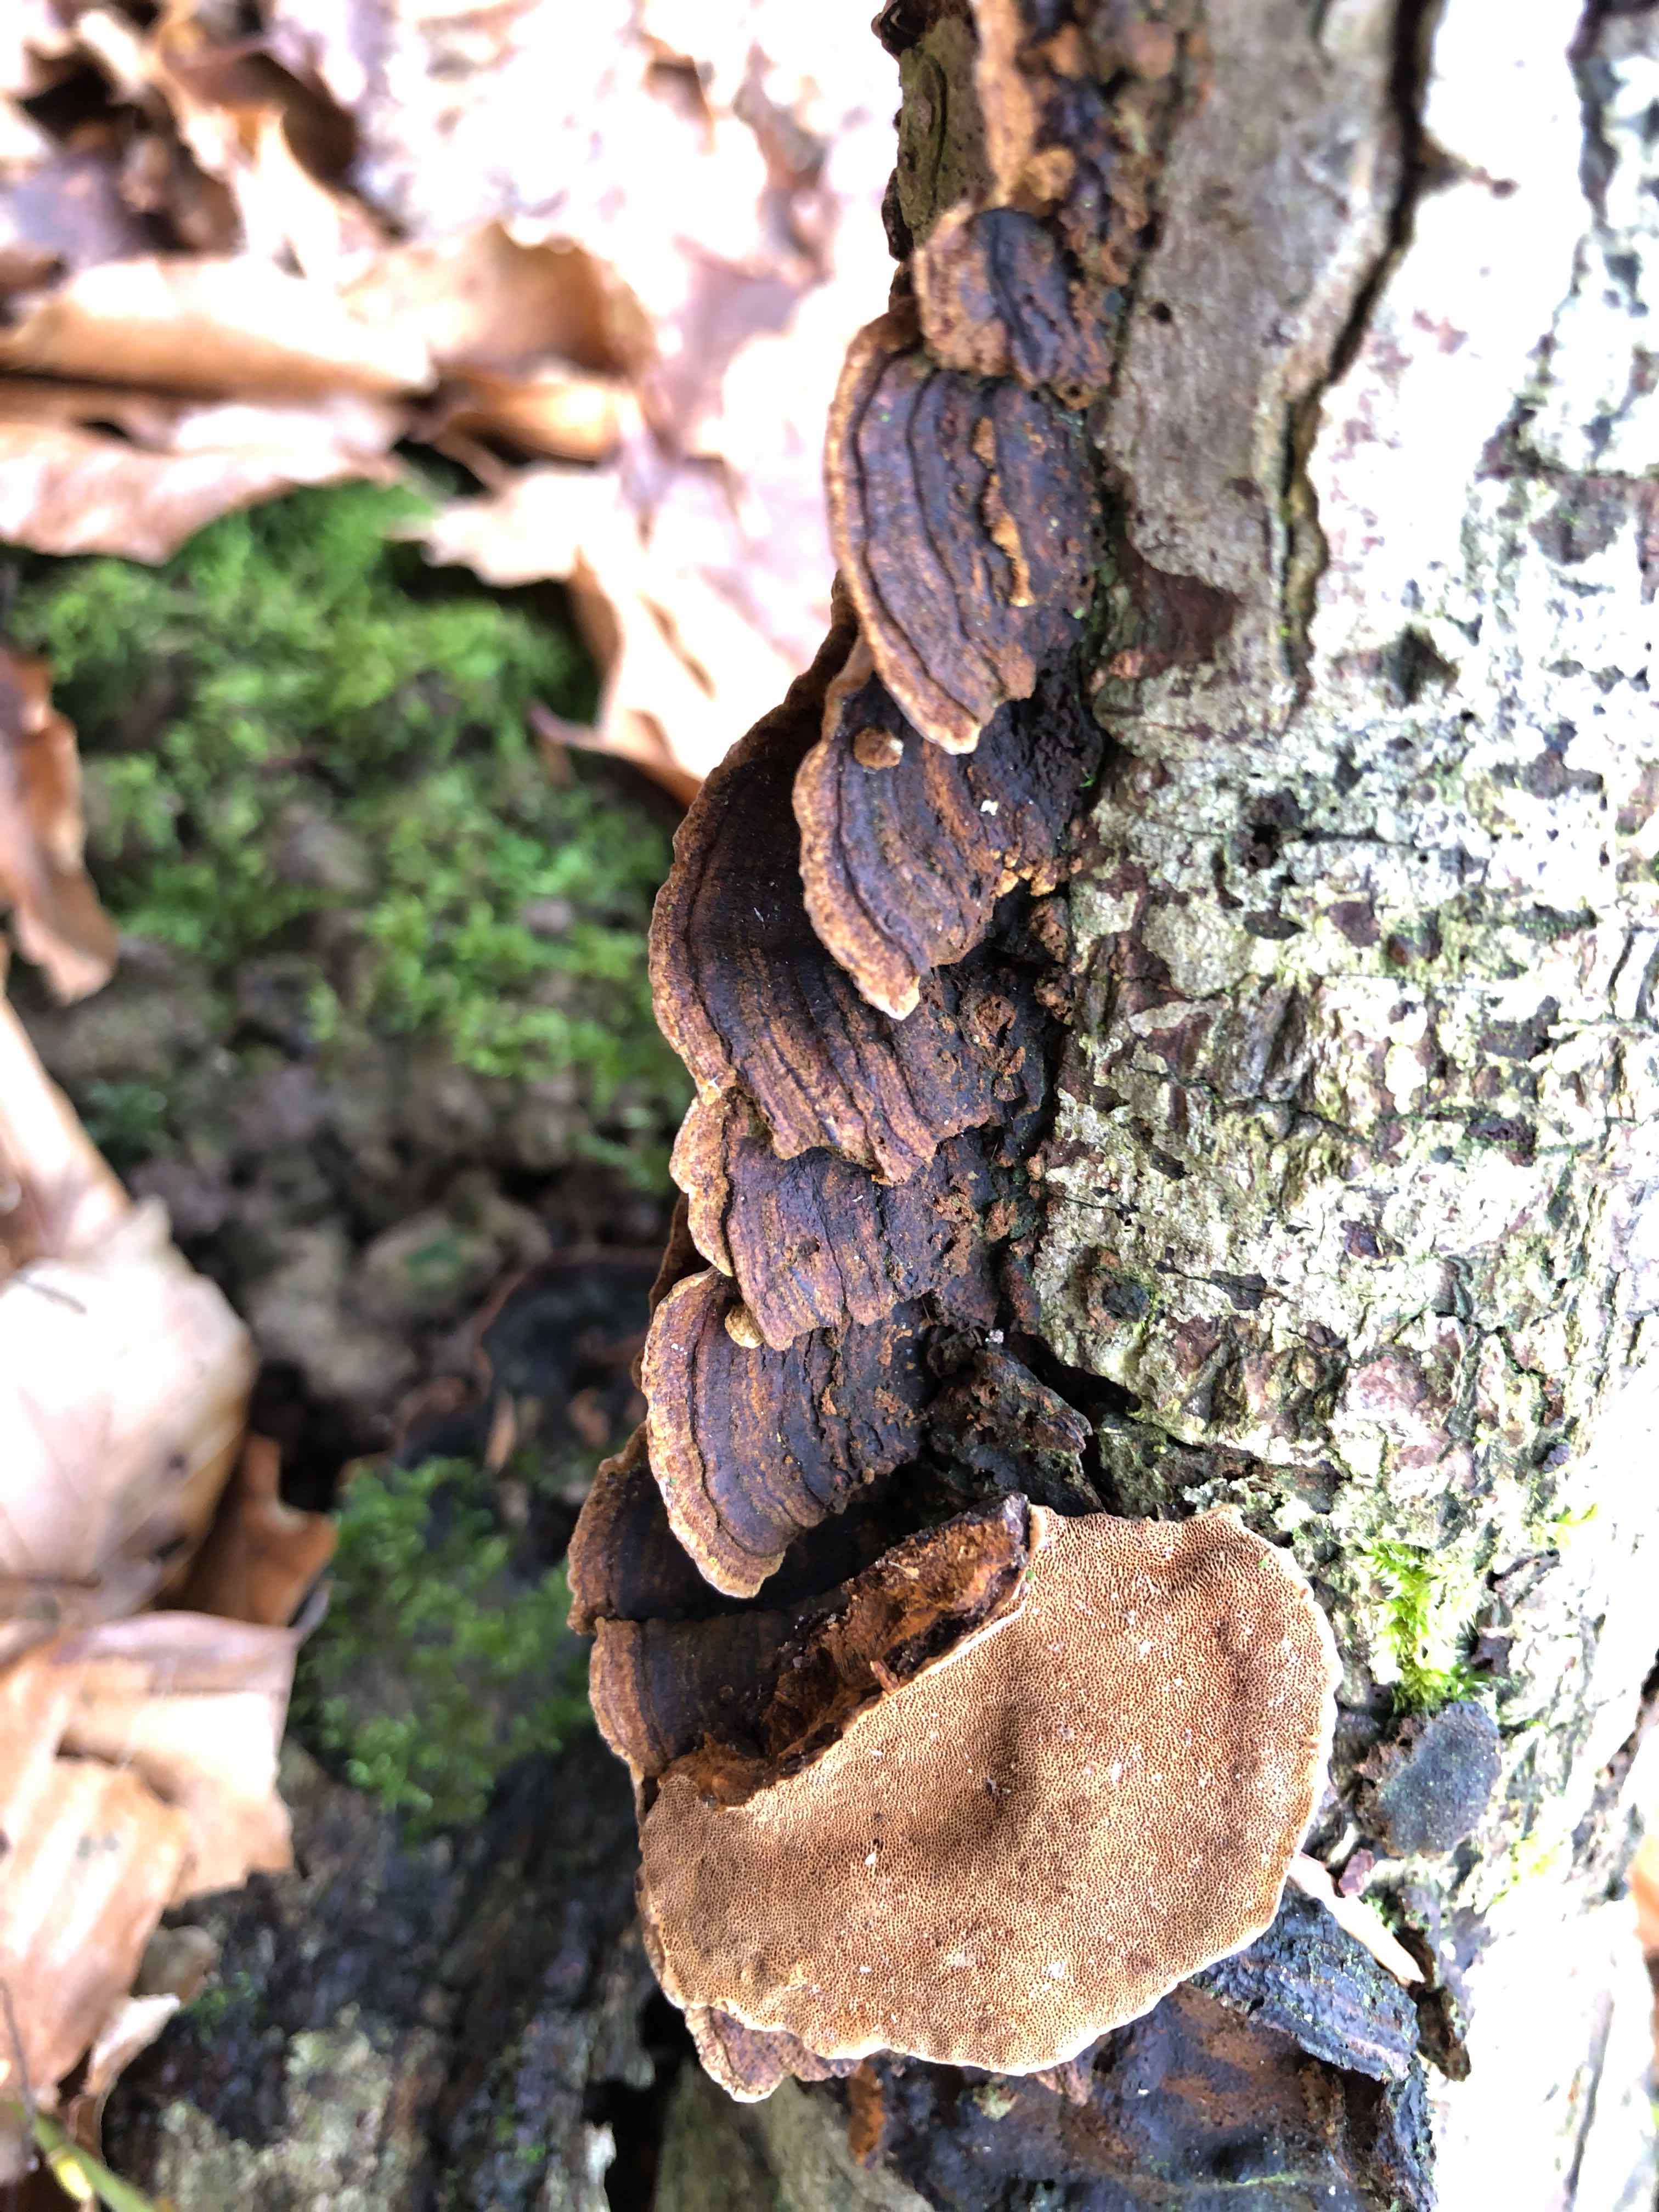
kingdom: Fungi
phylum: Basidiomycota
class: Agaricomycetes
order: Hymenochaetales
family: Hymenochaetaceae
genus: Phellinopsis
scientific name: Phellinopsis conchata
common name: pile-ildporesvamp
